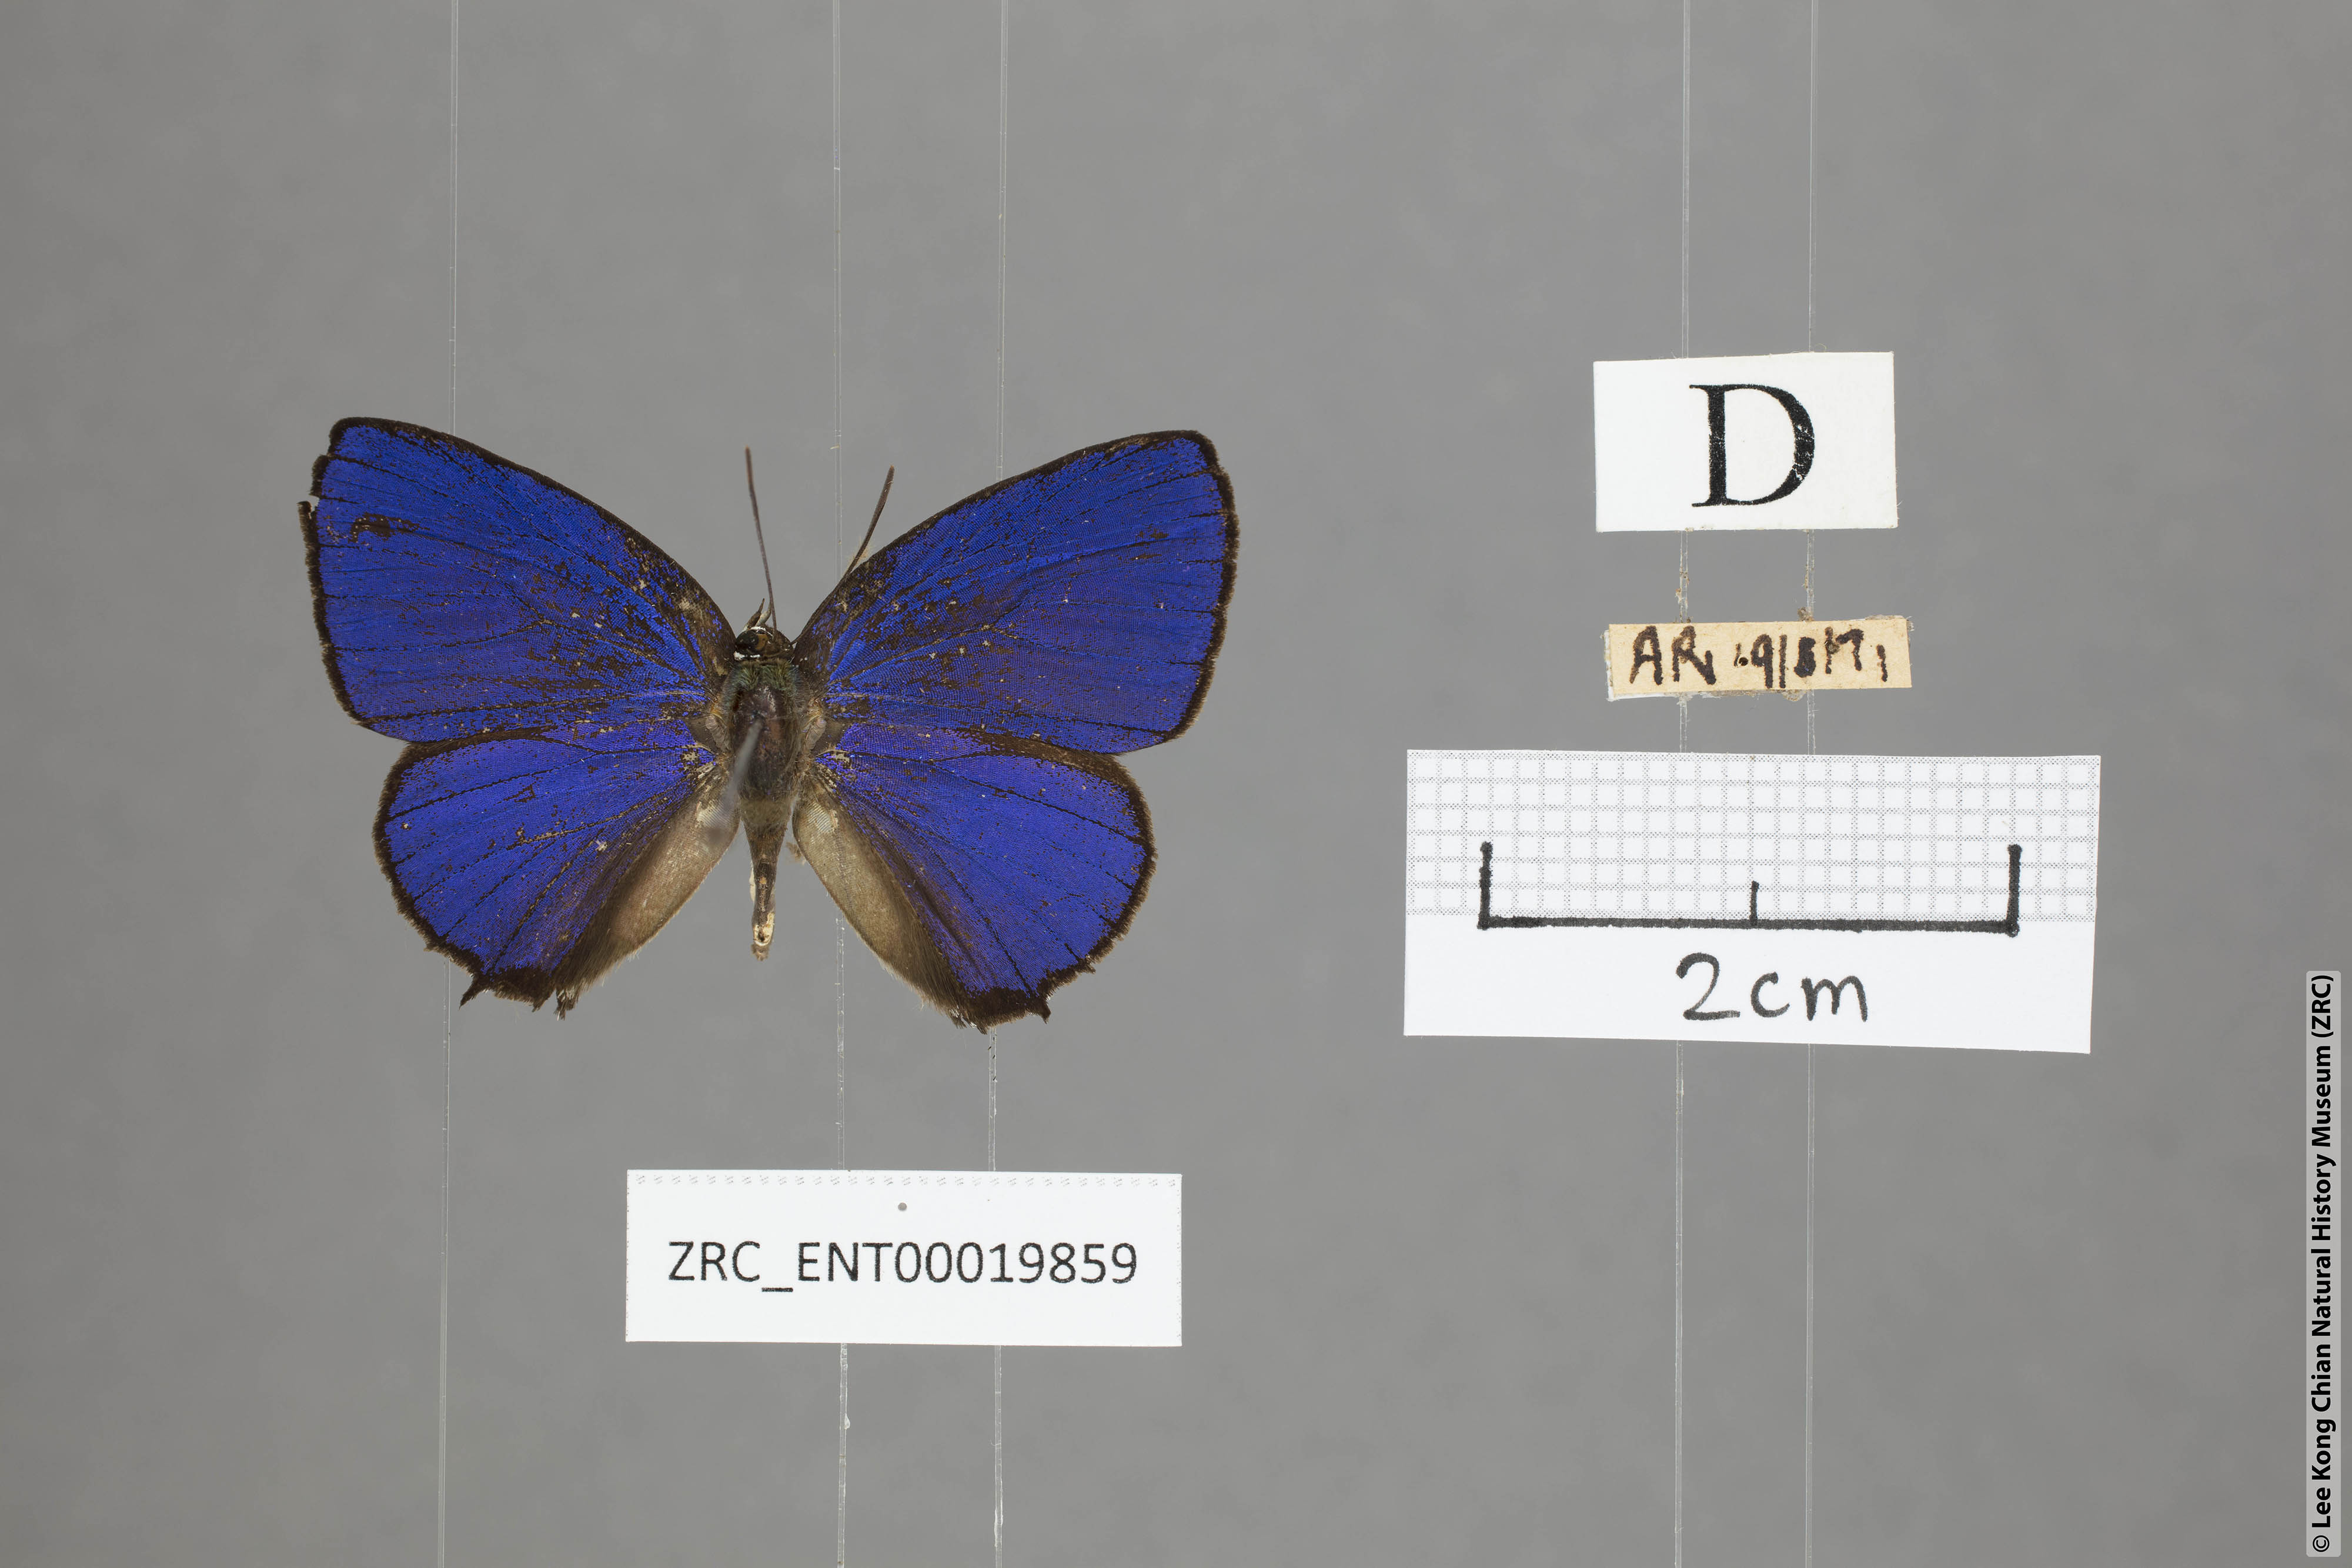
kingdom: Animalia
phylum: Arthropoda
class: Insecta
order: Lepidoptera
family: Lycaenidae
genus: Arhopala
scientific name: Arhopala sublustris
